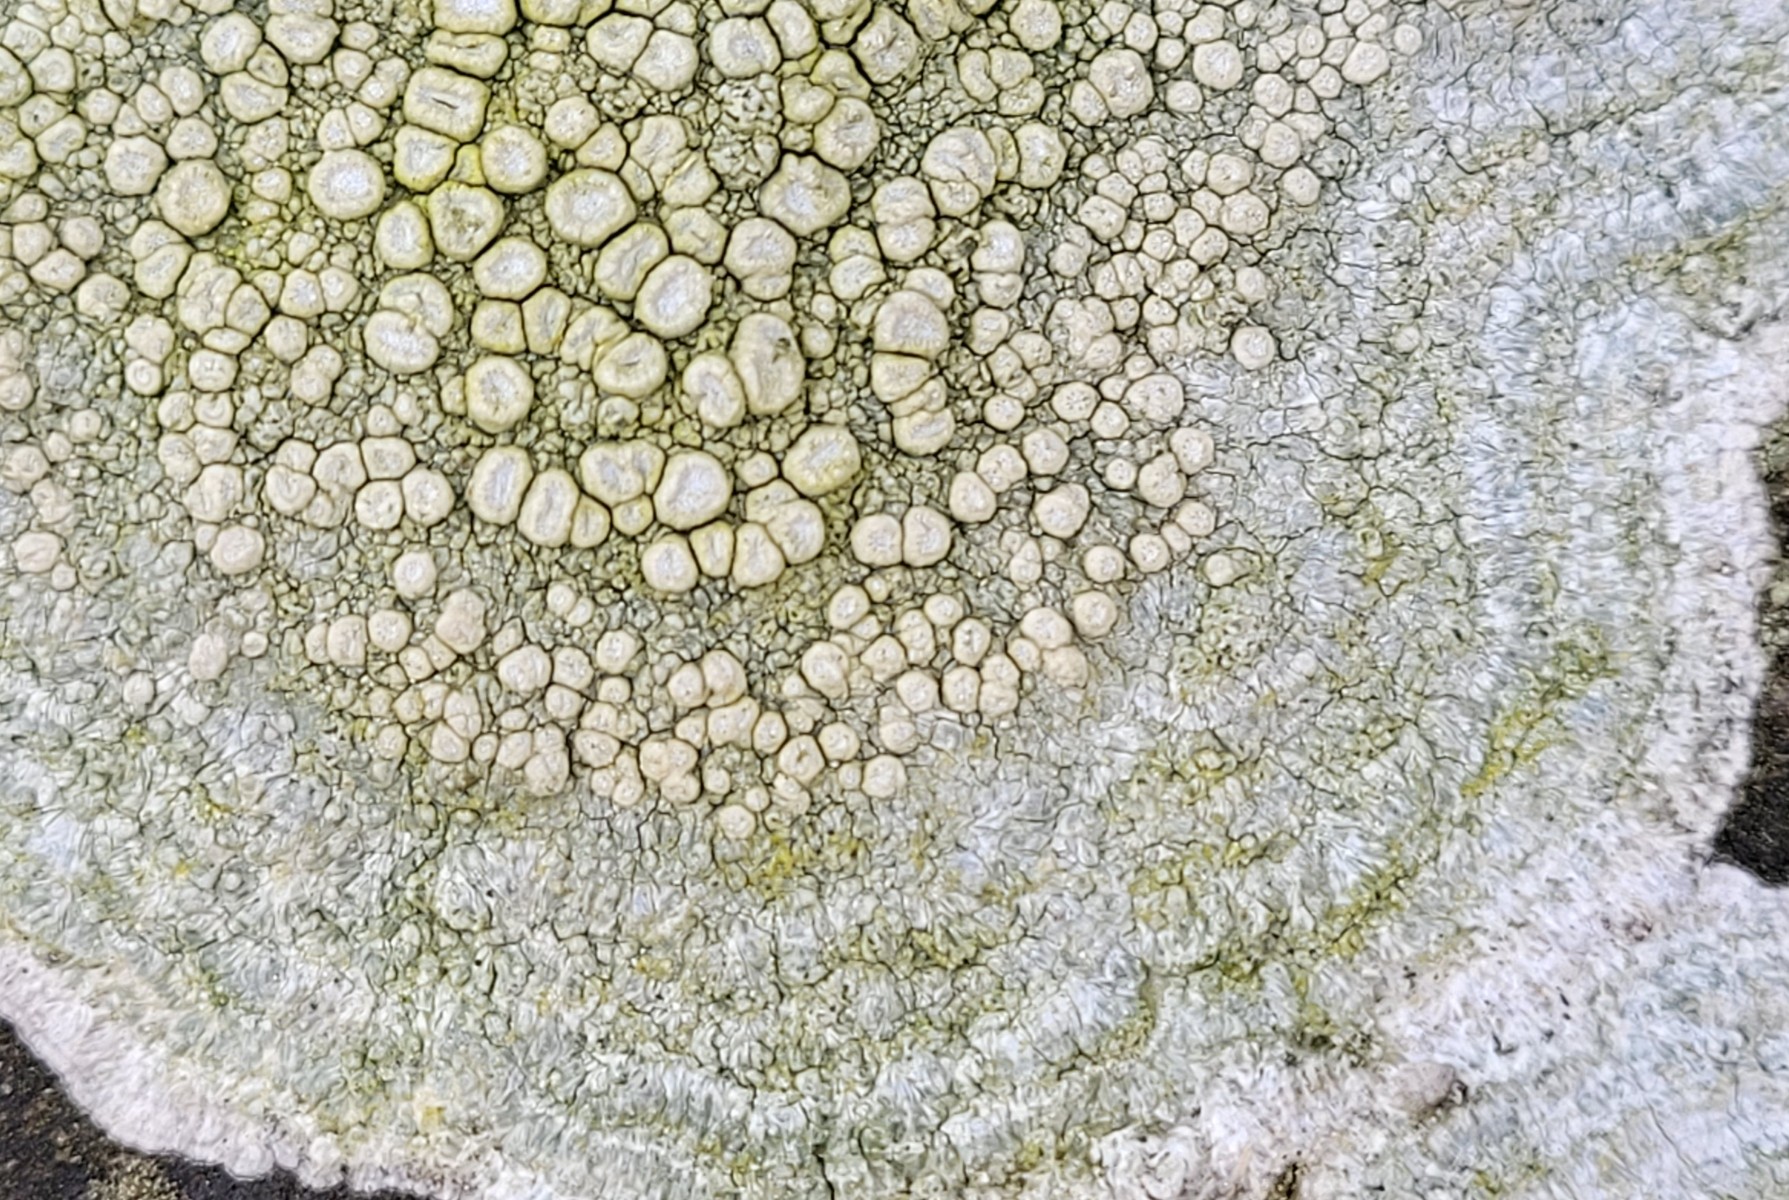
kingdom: Fungi
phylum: Ascomycota
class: Lecanoromycetes
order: Pertusariales
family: Ochrolechiaceae
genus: Ochrolechia
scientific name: Ochrolechia parella
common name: almindelig blegskivelav
